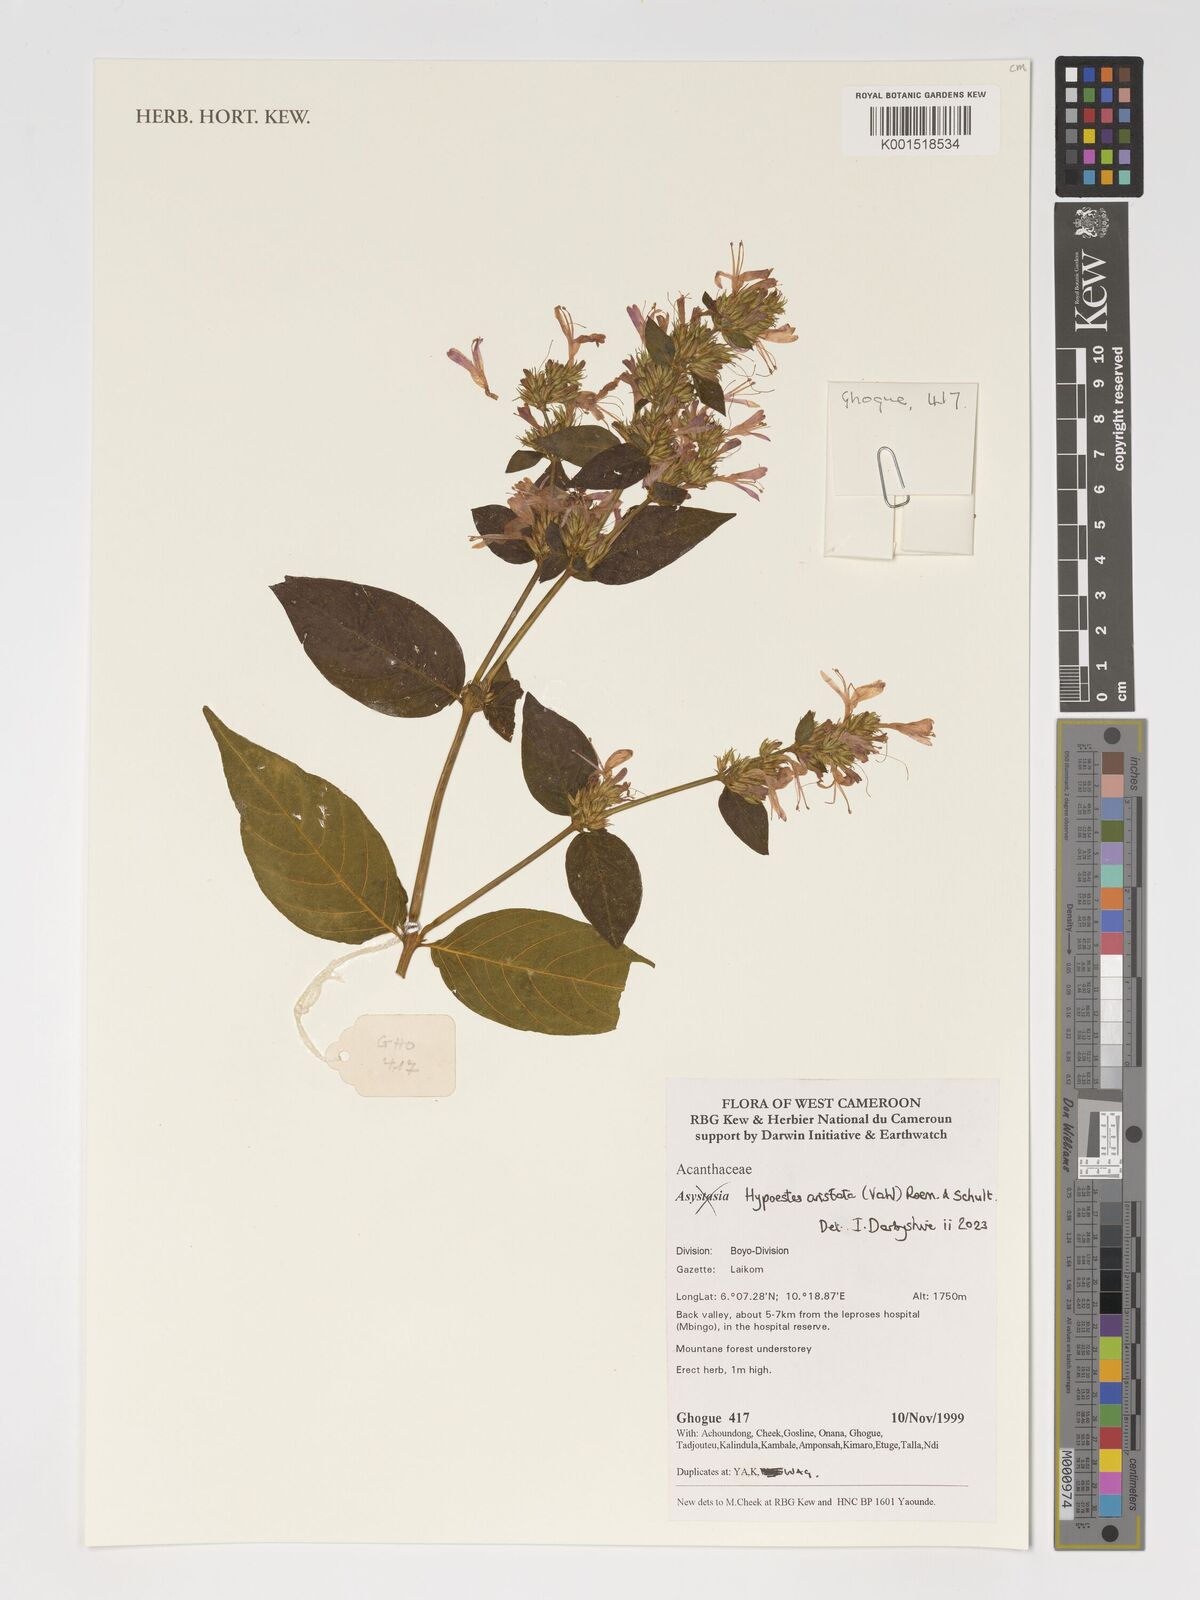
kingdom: Plantae
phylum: Tracheophyta
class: Magnoliopsida
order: Lamiales
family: Acanthaceae
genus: Hypoestes
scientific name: Hypoestes aristata
